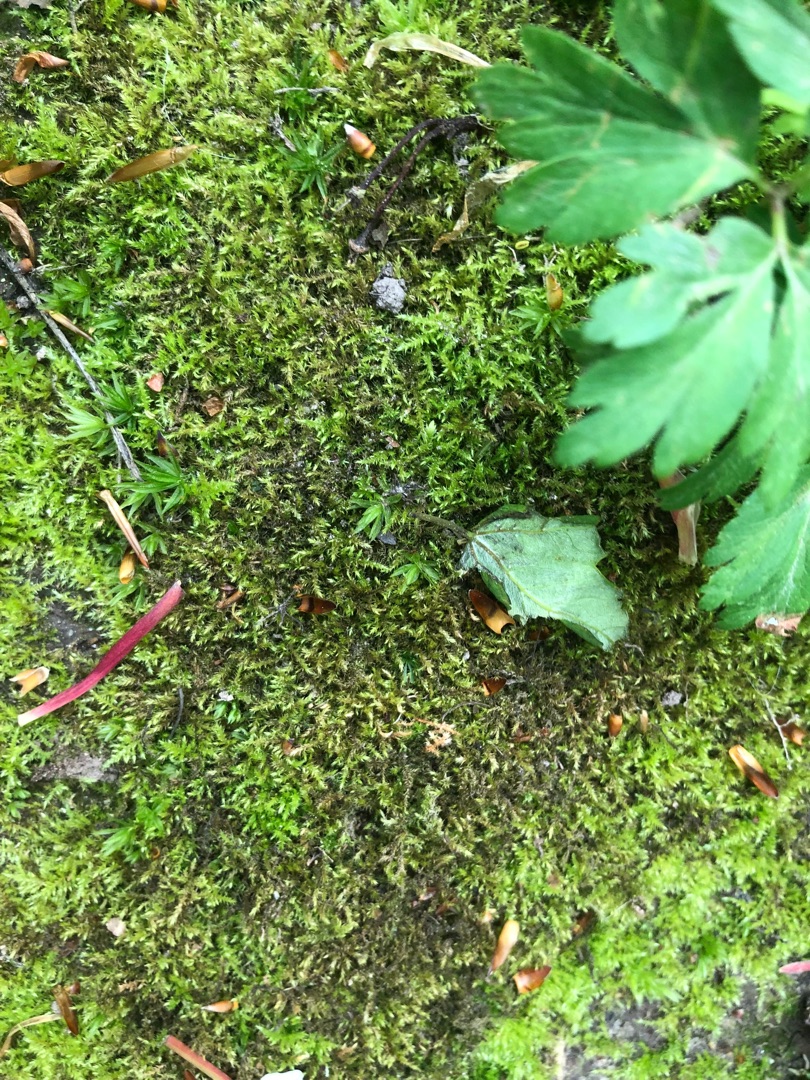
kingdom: Plantae
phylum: Bryophyta
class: Bryopsida
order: Hypnales
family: Brachytheciaceae
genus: Kindbergia
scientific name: Kindbergia praelonga
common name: Forskelligbladet vortetand
